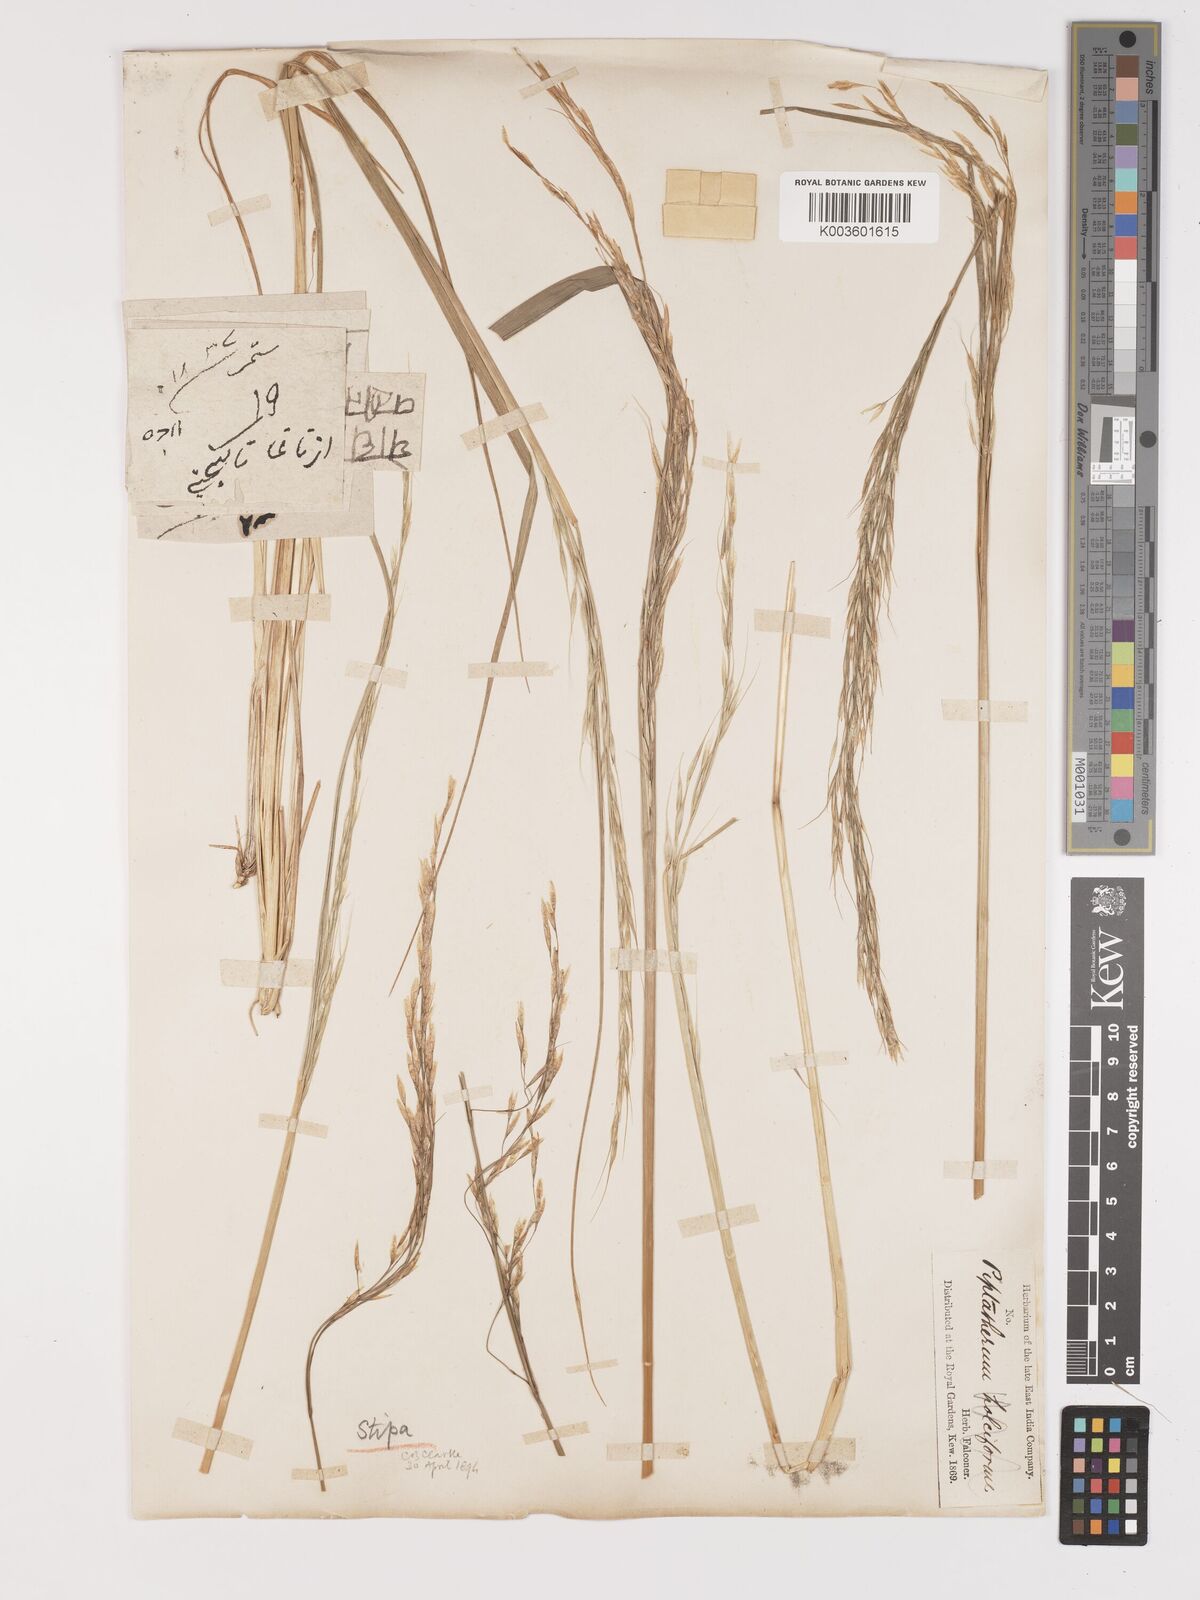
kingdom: Plantae
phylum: Tracheophyta
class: Liliopsida
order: Poales
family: Poaceae
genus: Achnatherum
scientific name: Achnatherum brandisii
